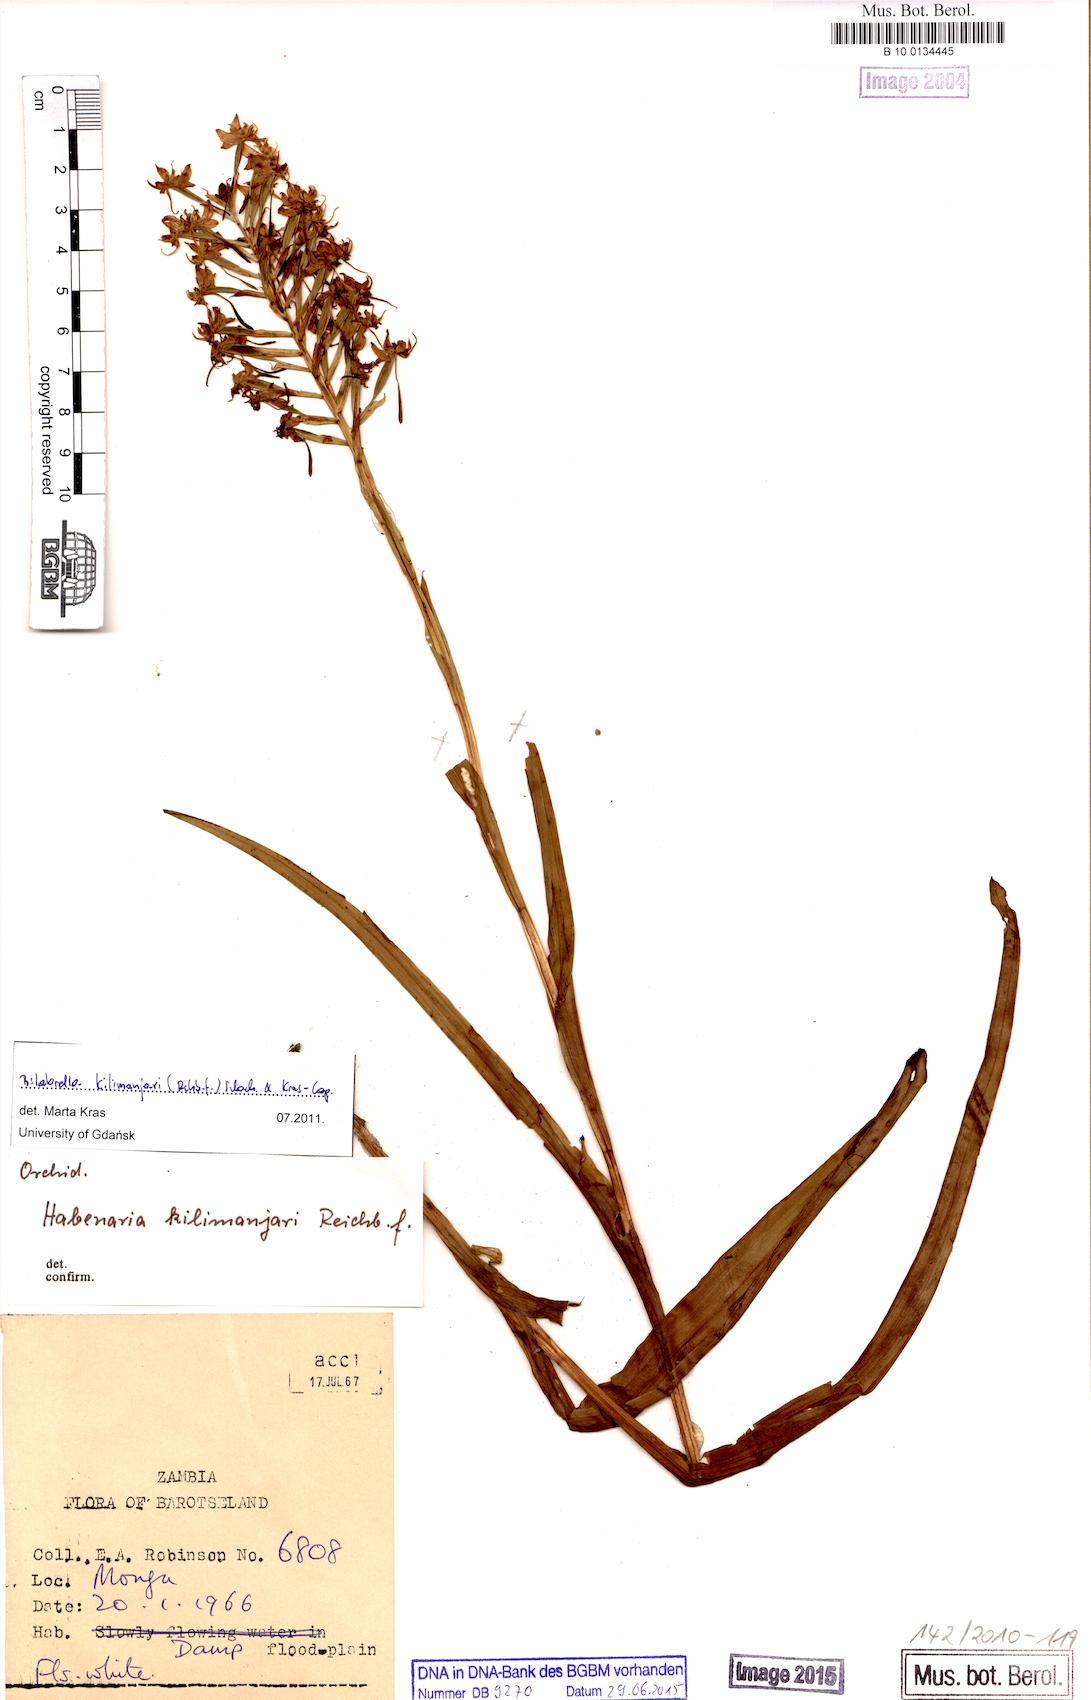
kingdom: Plantae
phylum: Tracheophyta
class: Liliopsida
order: Asparagales
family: Orchidaceae
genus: Habenaria
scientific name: Habenaria kilimanjari
